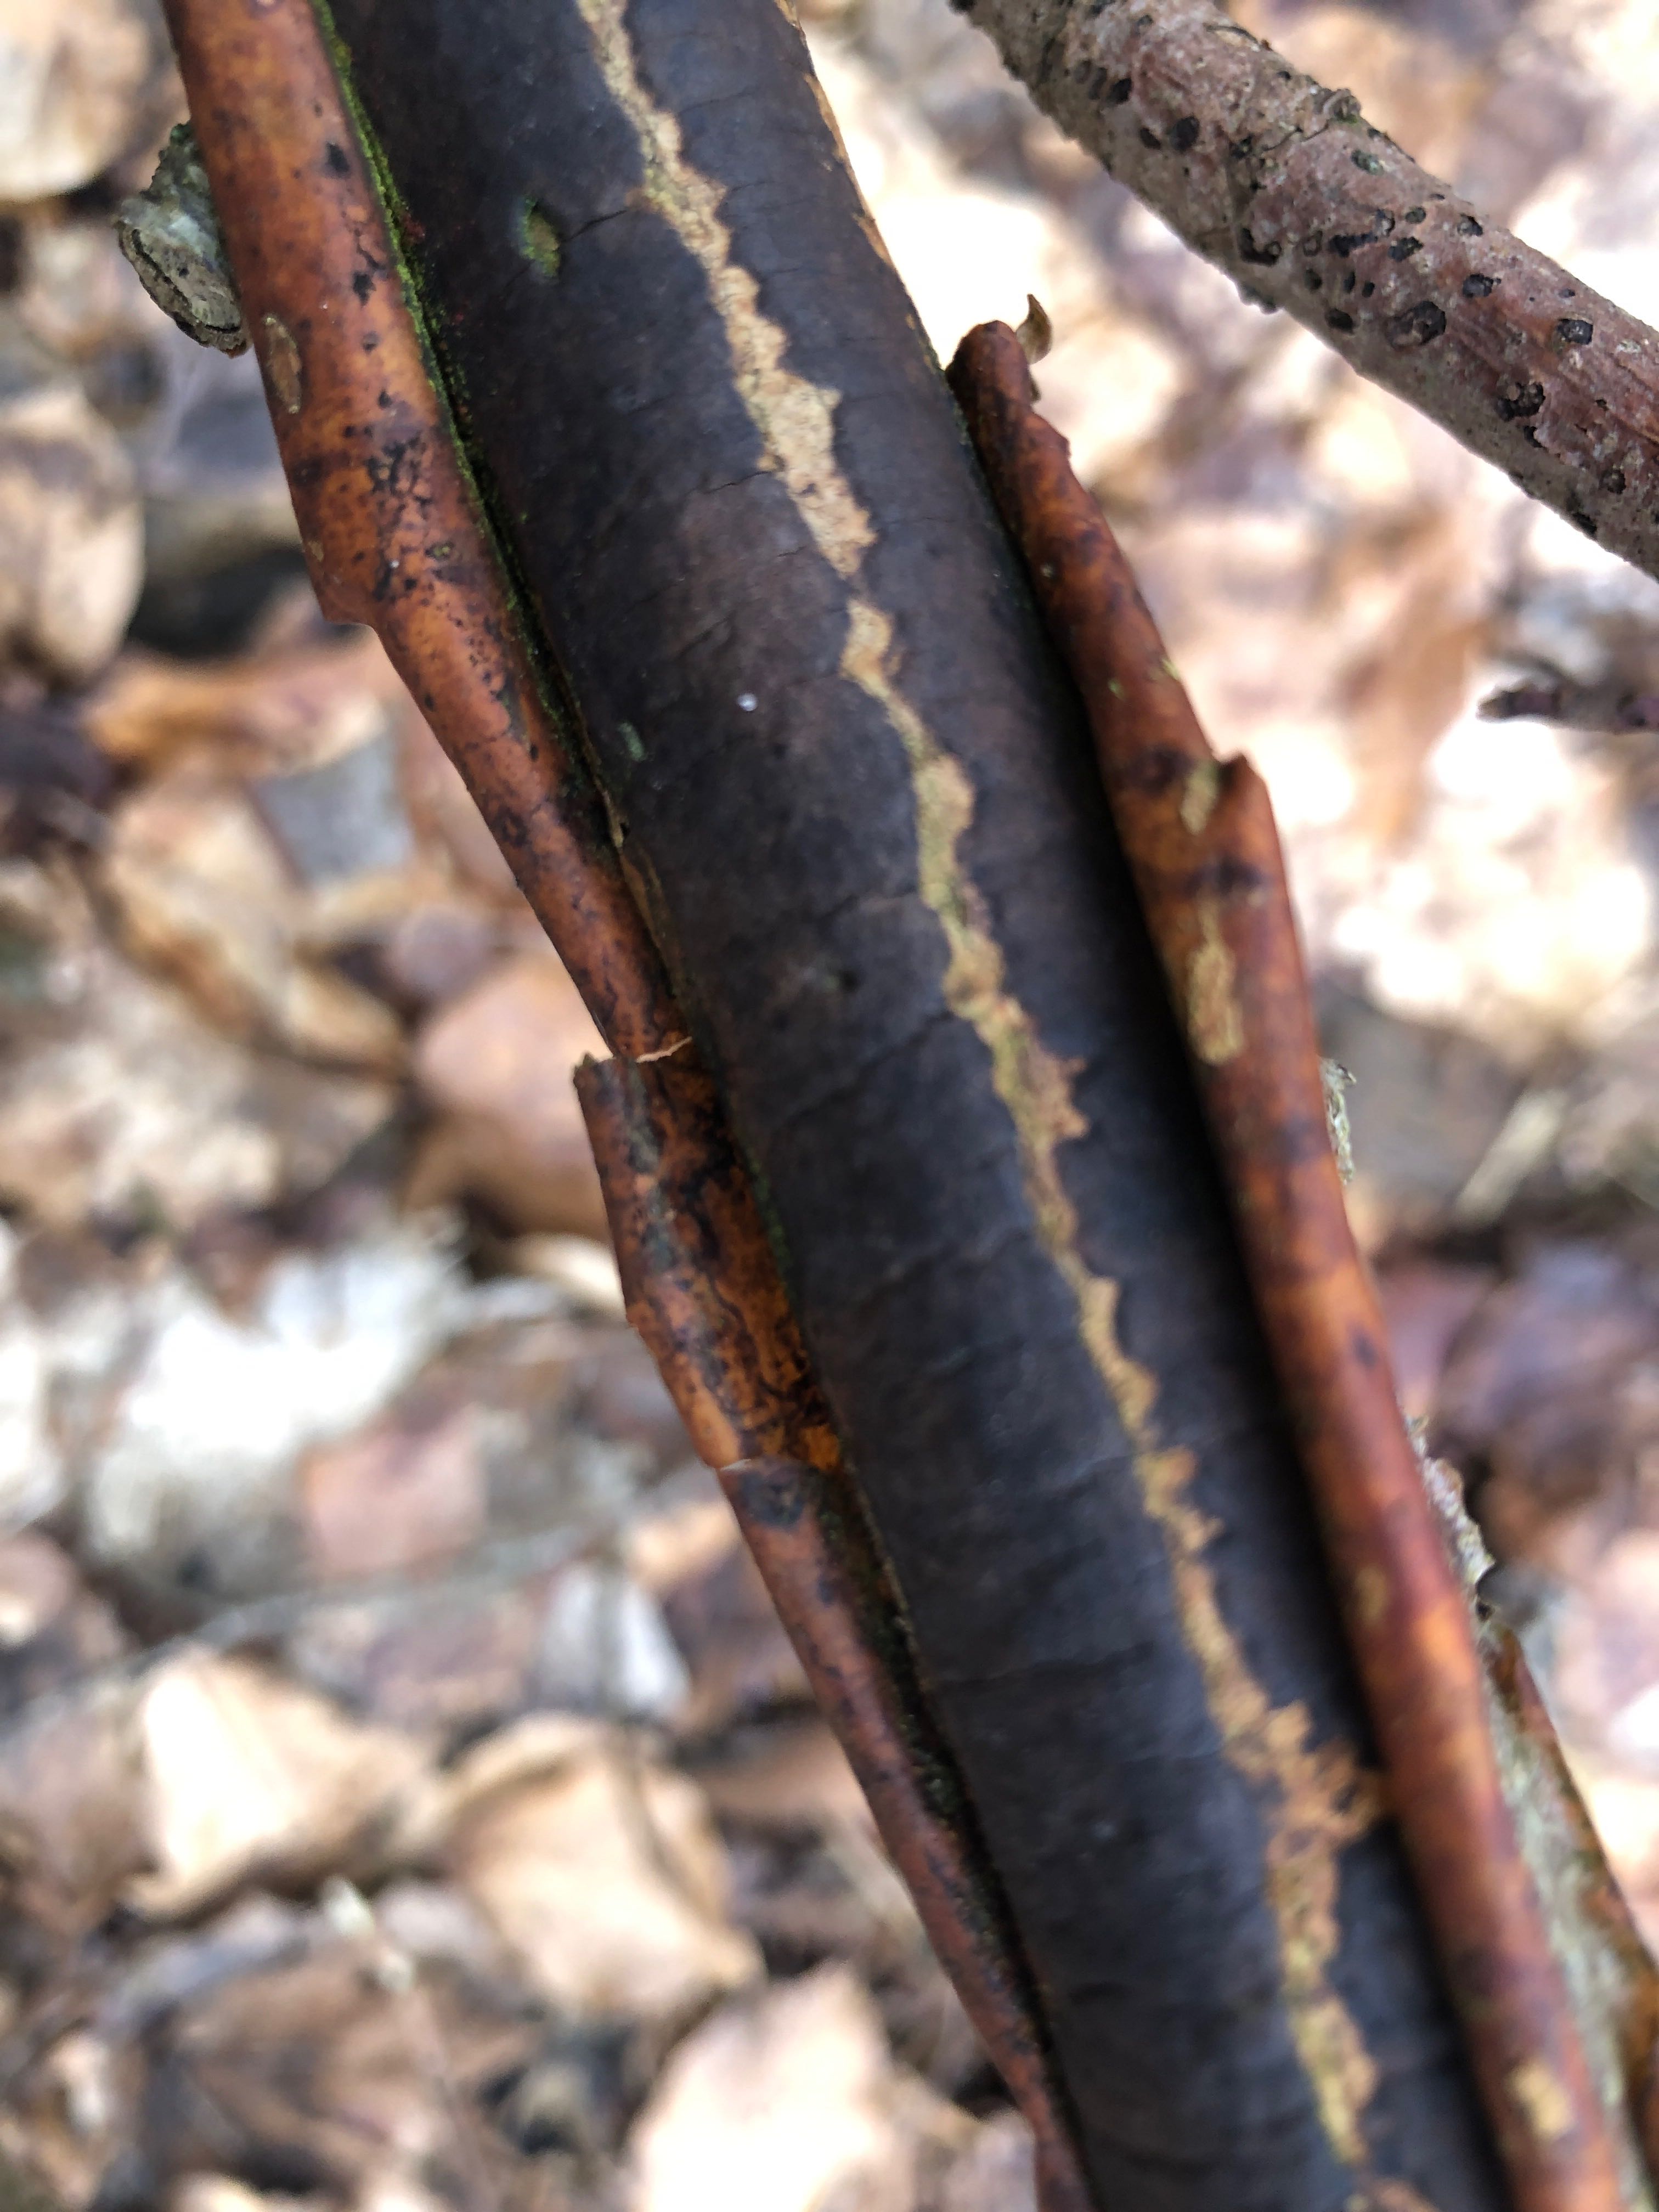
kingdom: Fungi
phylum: Ascomycota
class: Sordariomycetes
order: Xylariales
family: Diatrypaceae
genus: Diatrype
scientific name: Diatrype decorticata
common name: barksprænger-kulskorpe
